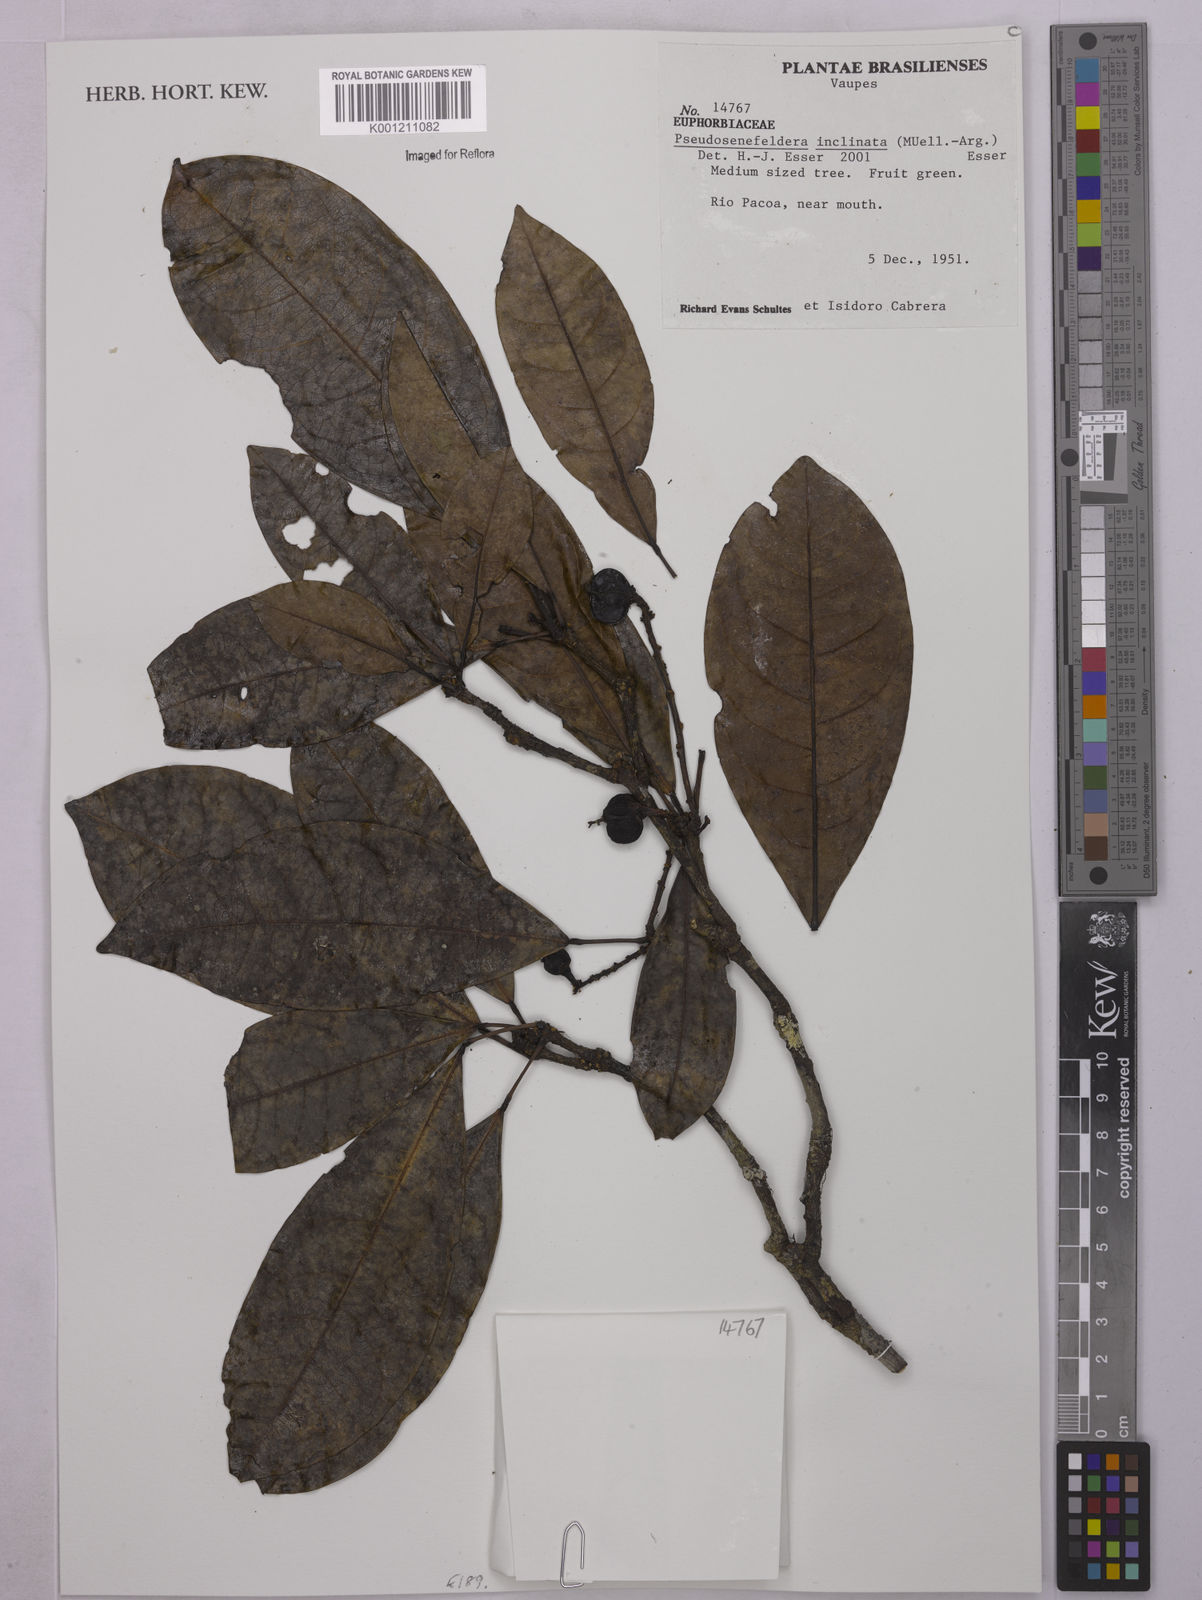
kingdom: Plantae
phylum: Tracheophyta
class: Magnoliopsida
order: Malpighiales
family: Euphorbiaceae
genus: Pseudosenefeldera
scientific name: Pseudosenefeldera
